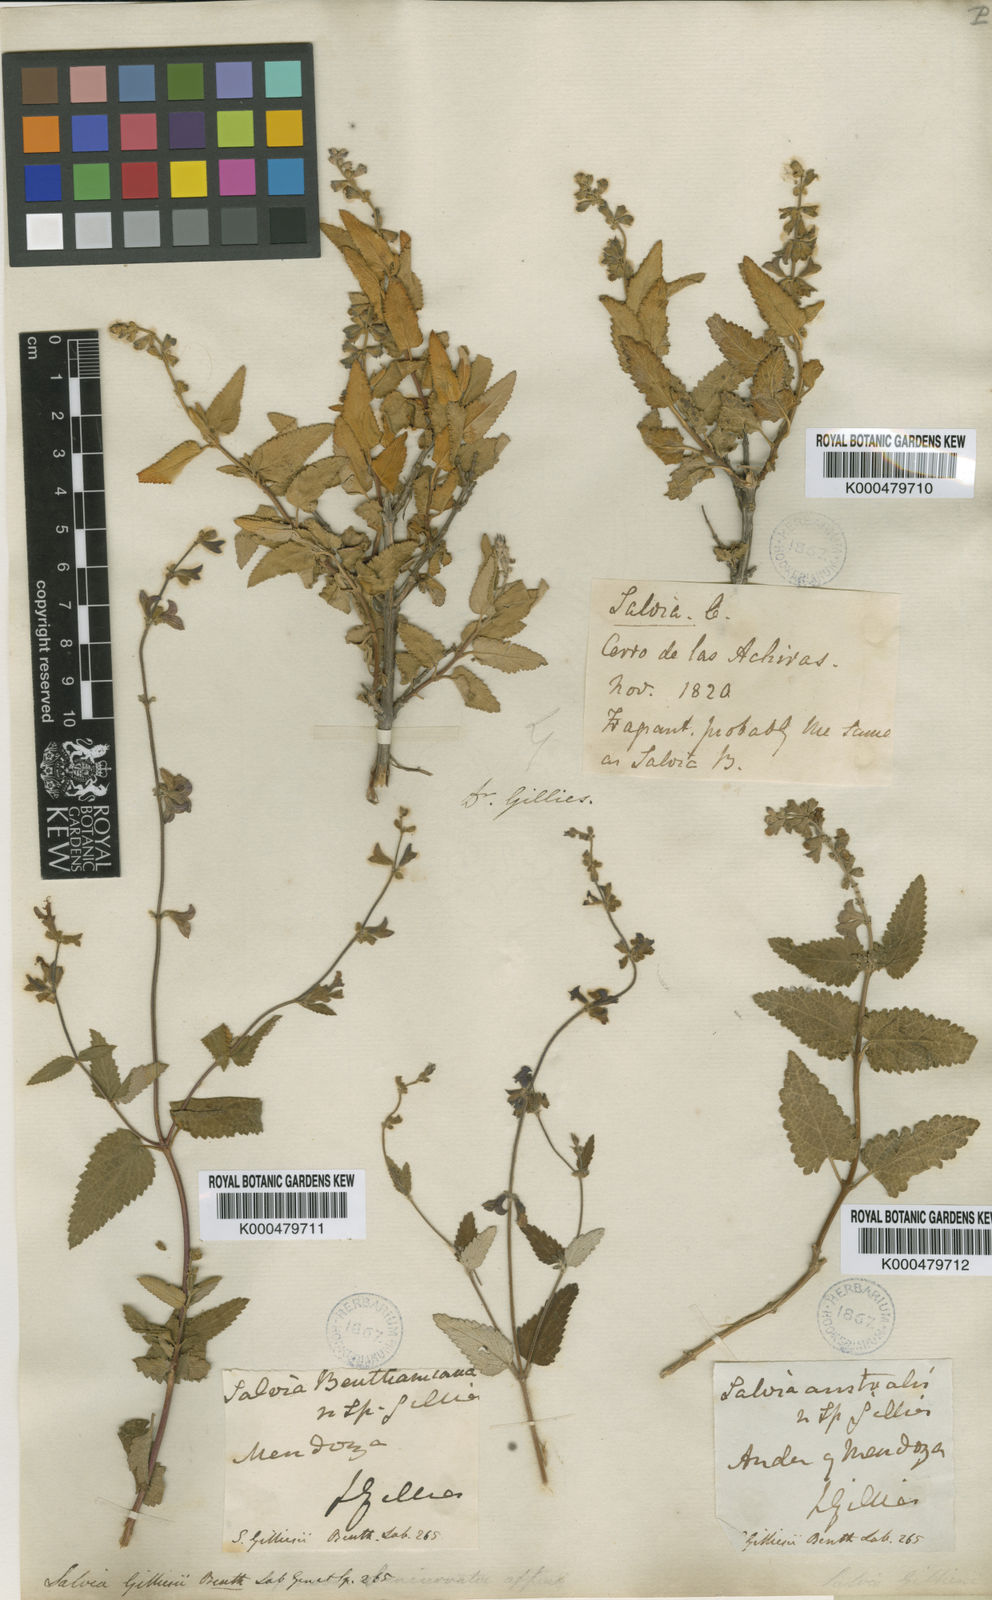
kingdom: Plantae
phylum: Tracheophyta
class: Magnoliopsida
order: Lamiales
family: Lamiaceae
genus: Salvia
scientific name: Salvia cuspidata
